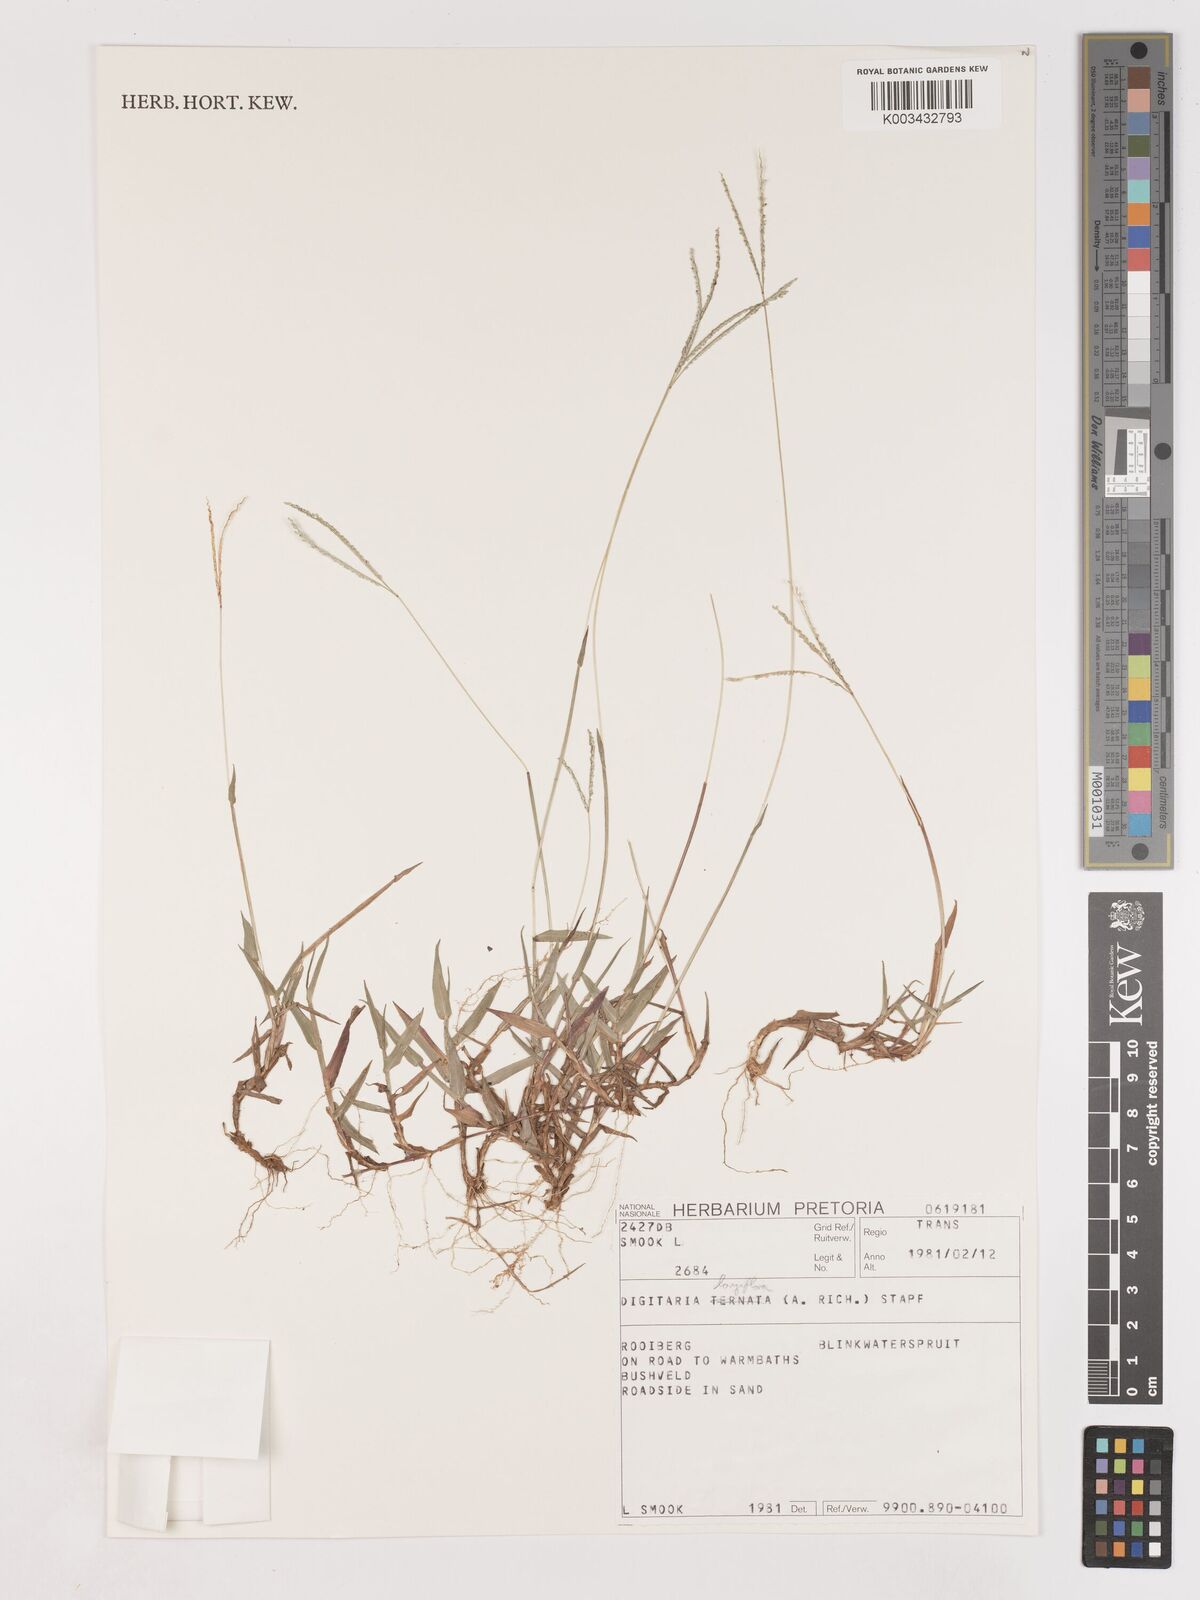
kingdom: Plantae
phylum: Tracheophyta
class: Liliopsida
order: Poales
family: Poaceae
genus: Digitaria
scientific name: Digitaria longiflora
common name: Wire crabgrass
